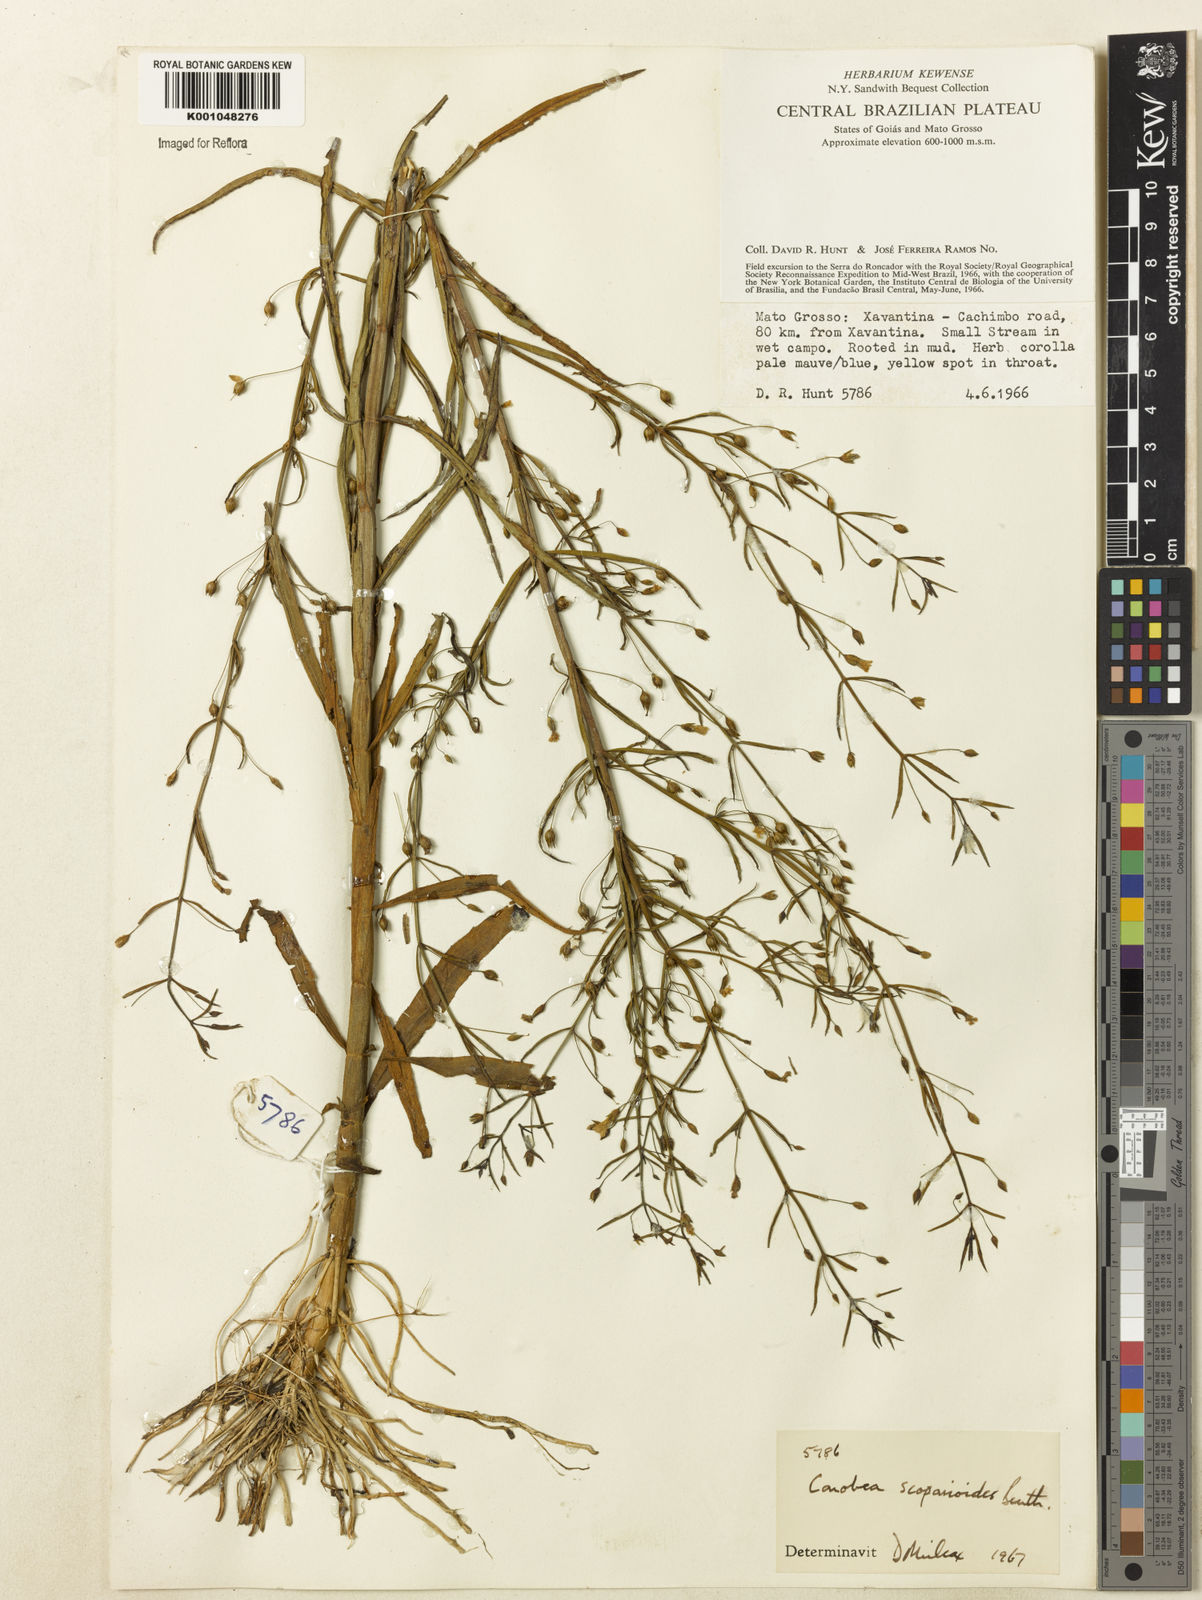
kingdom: Plantae
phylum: Tracheophyta
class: Magnoliopsida
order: Lamiales
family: Plantaginaceae
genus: Conobea
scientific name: Conobea scoparioides
